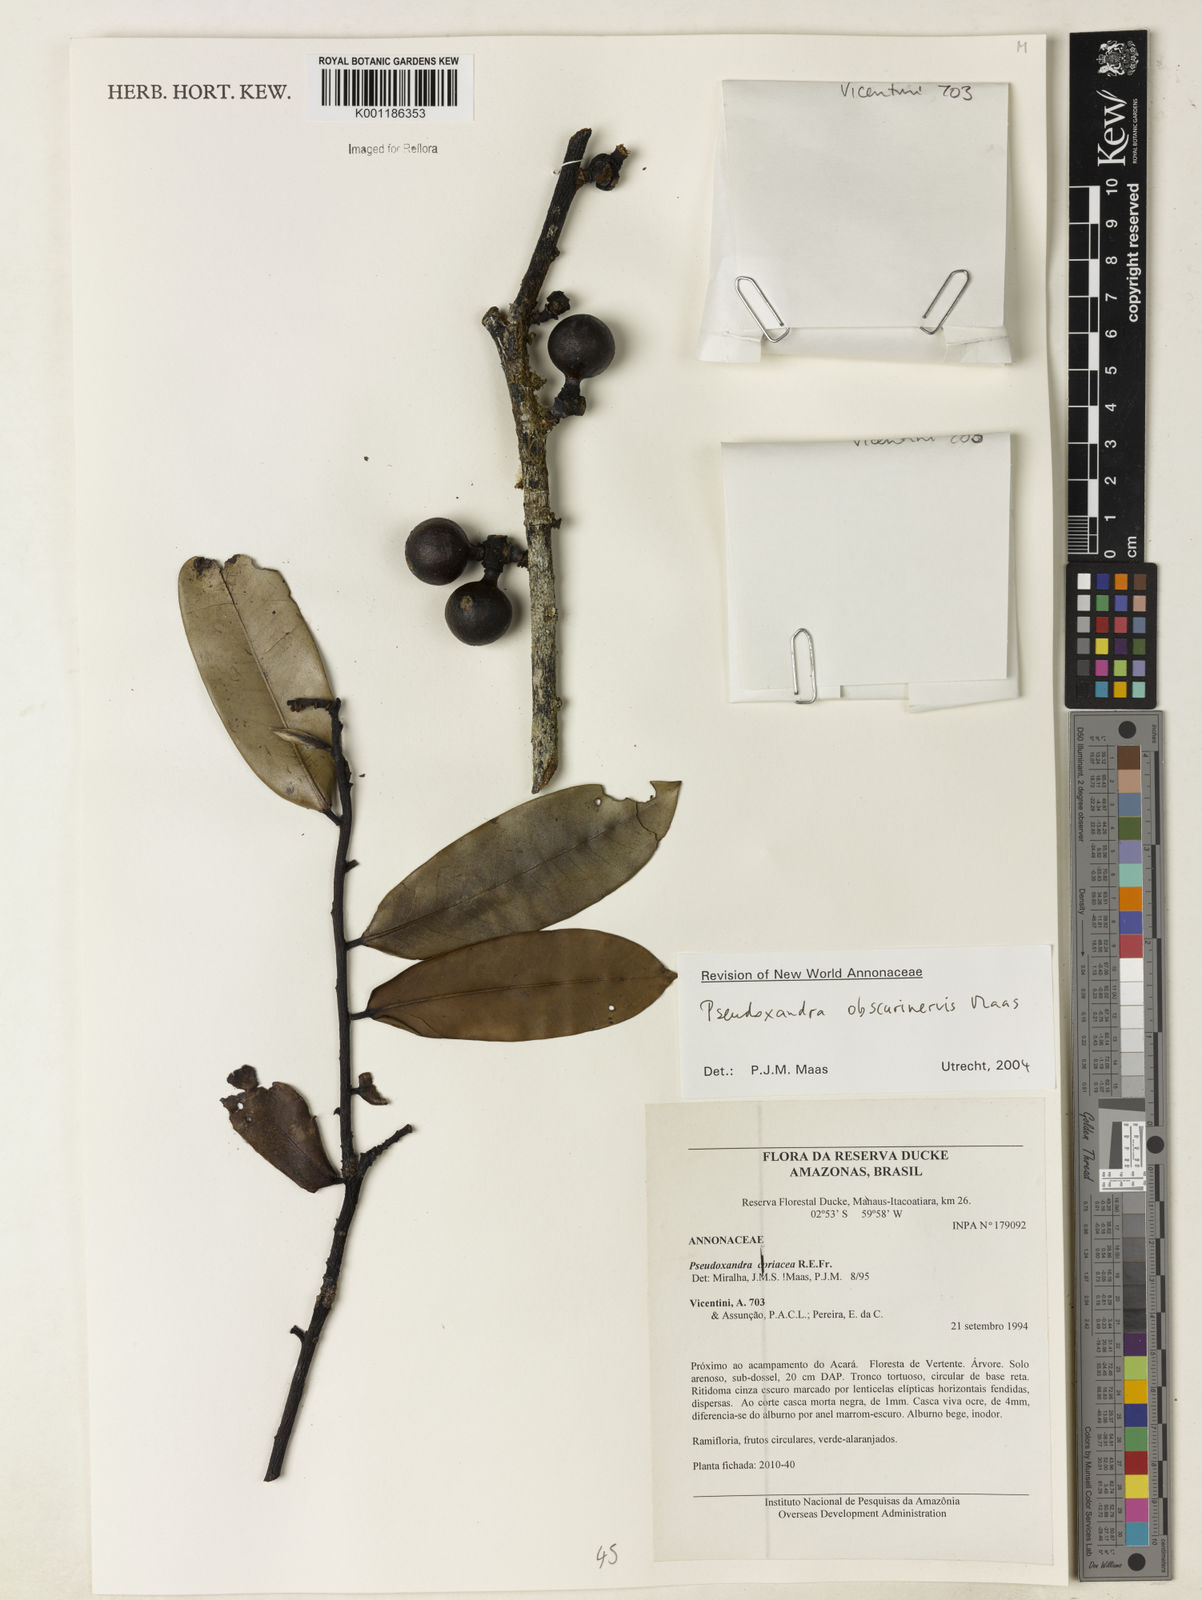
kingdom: Plantae
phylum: Tracheophyta
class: Magnoliopsida
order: Magnoliales
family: Annonaceae
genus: Pseudoxandra
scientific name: Pseudoxandra obscurinervis
